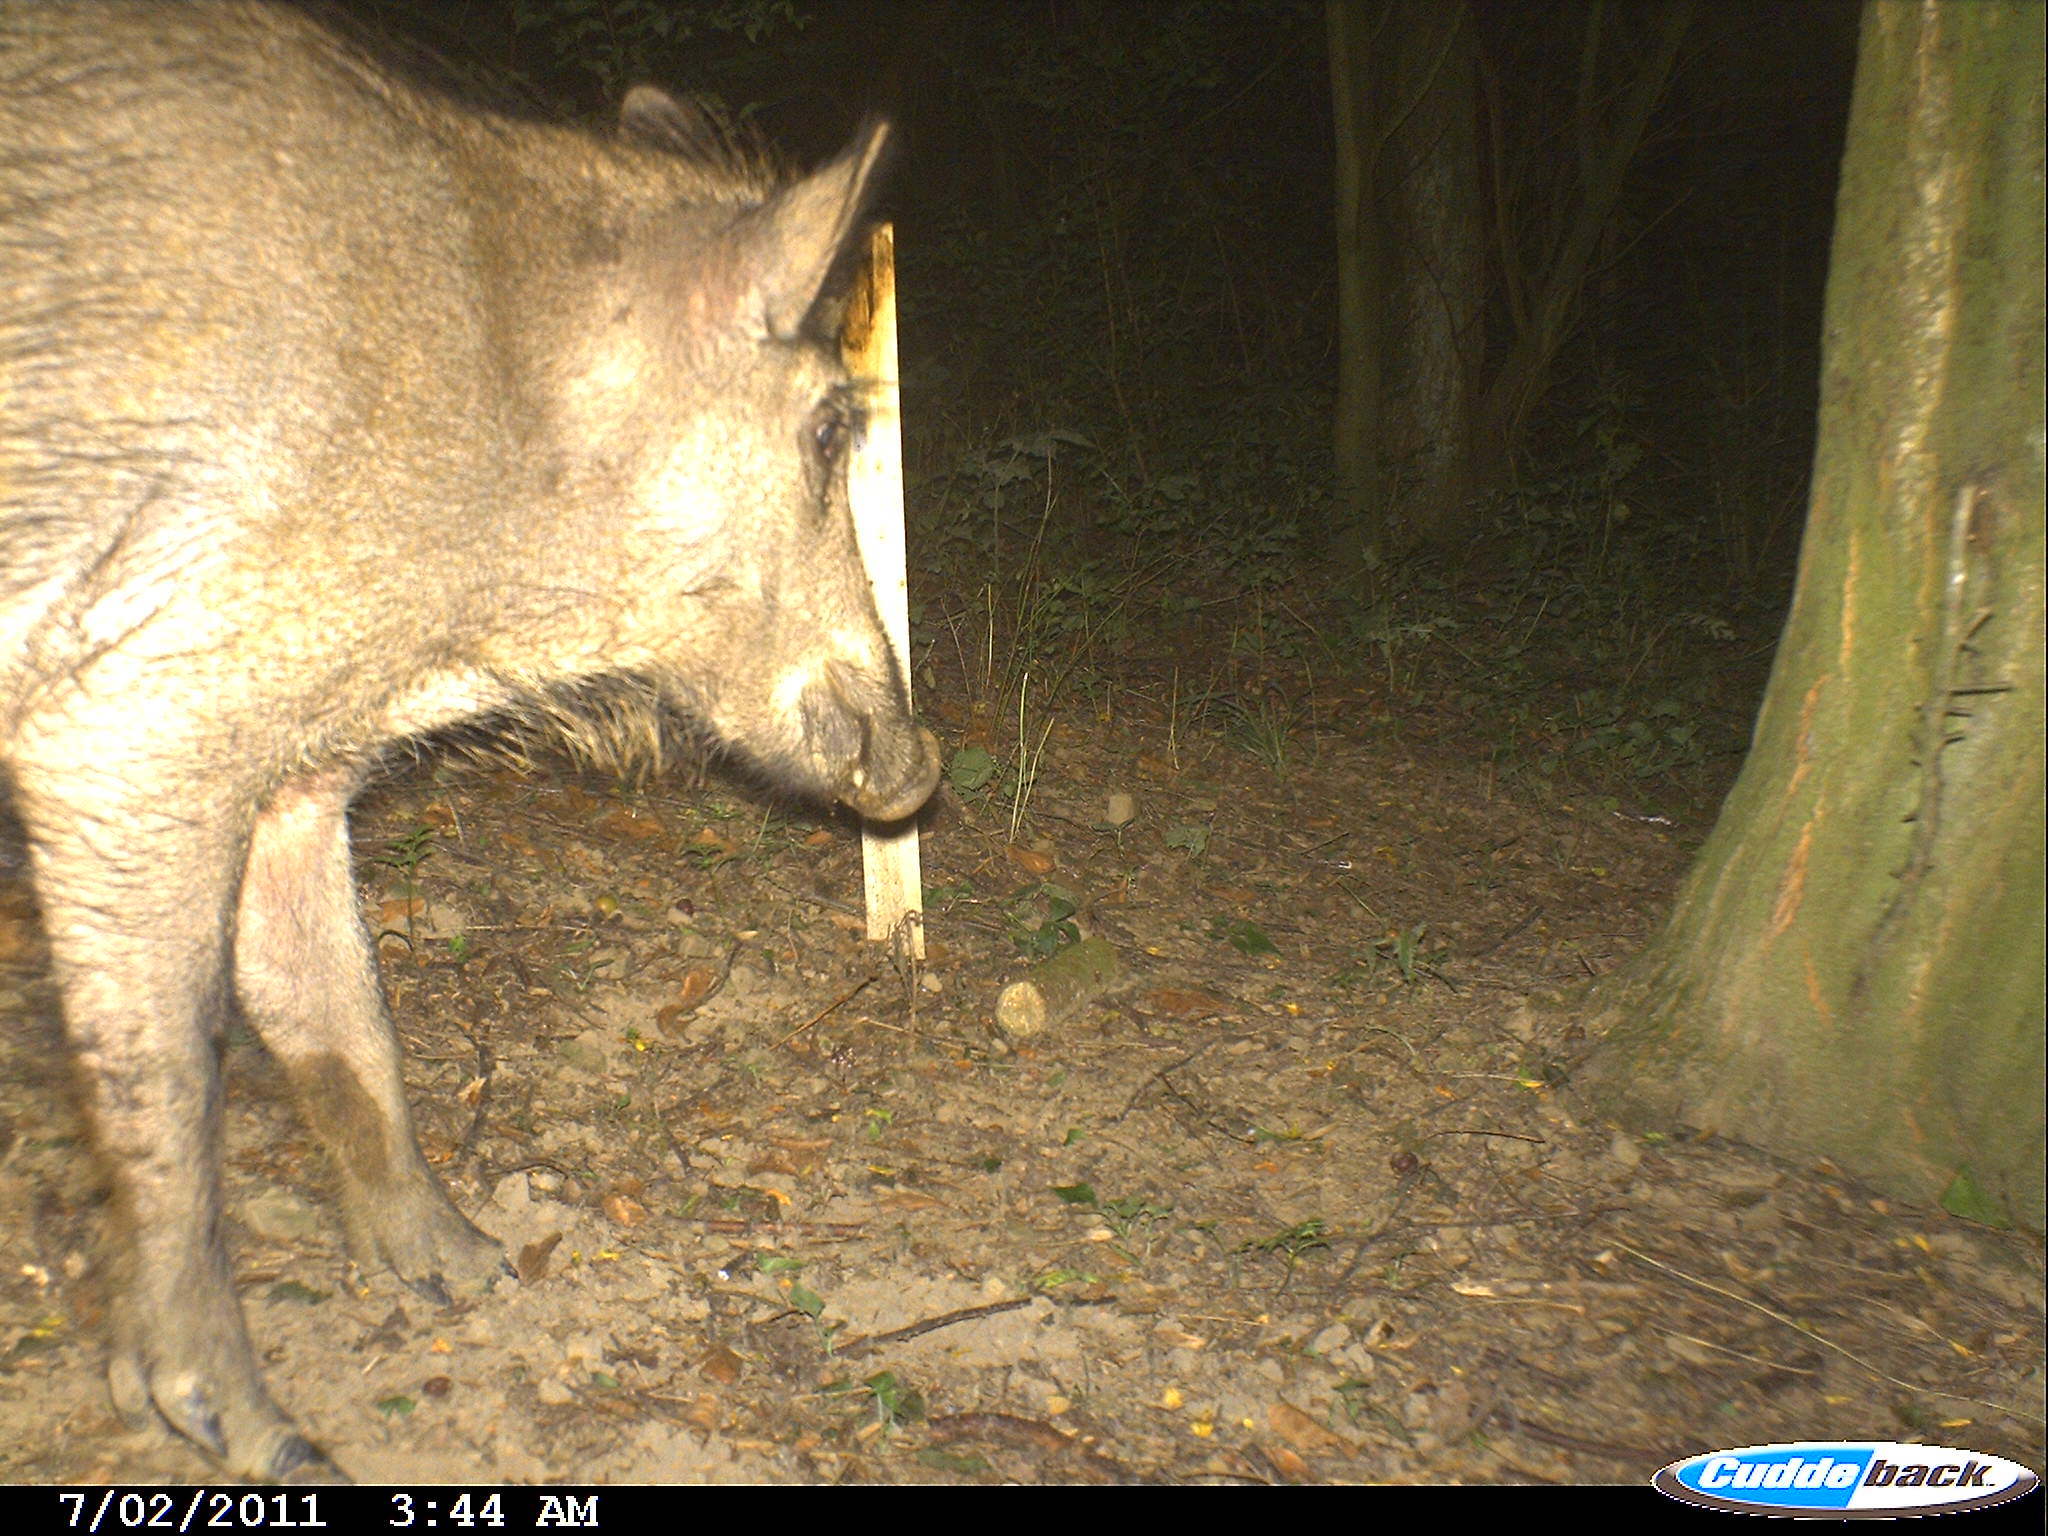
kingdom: Animalia
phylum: Chordata
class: Mammalia
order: Artiodactyla
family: Suidae
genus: Sus
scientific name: Sus scrofa
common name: Wild boar
